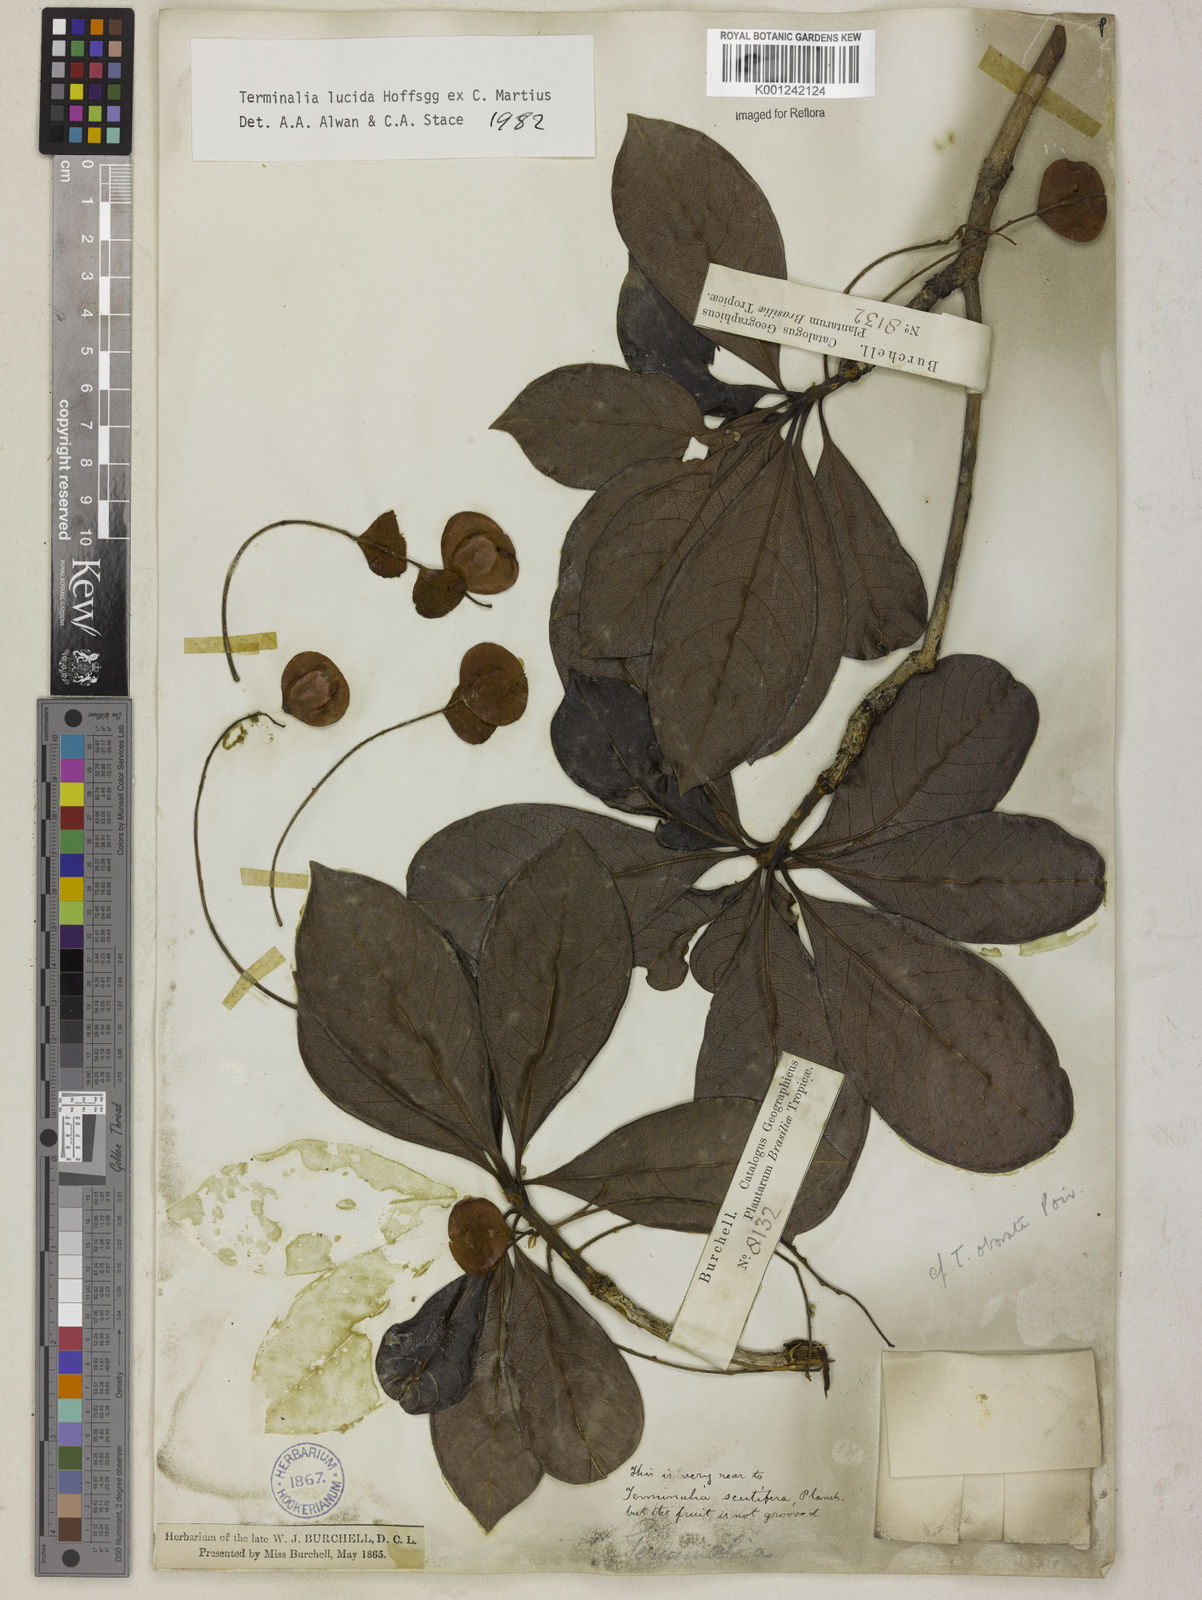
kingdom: Plantae
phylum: Tracheophyta
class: Magnoliopsida
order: Myrtales
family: Combretaceae
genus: Terminalia
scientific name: Terminalia lucida
